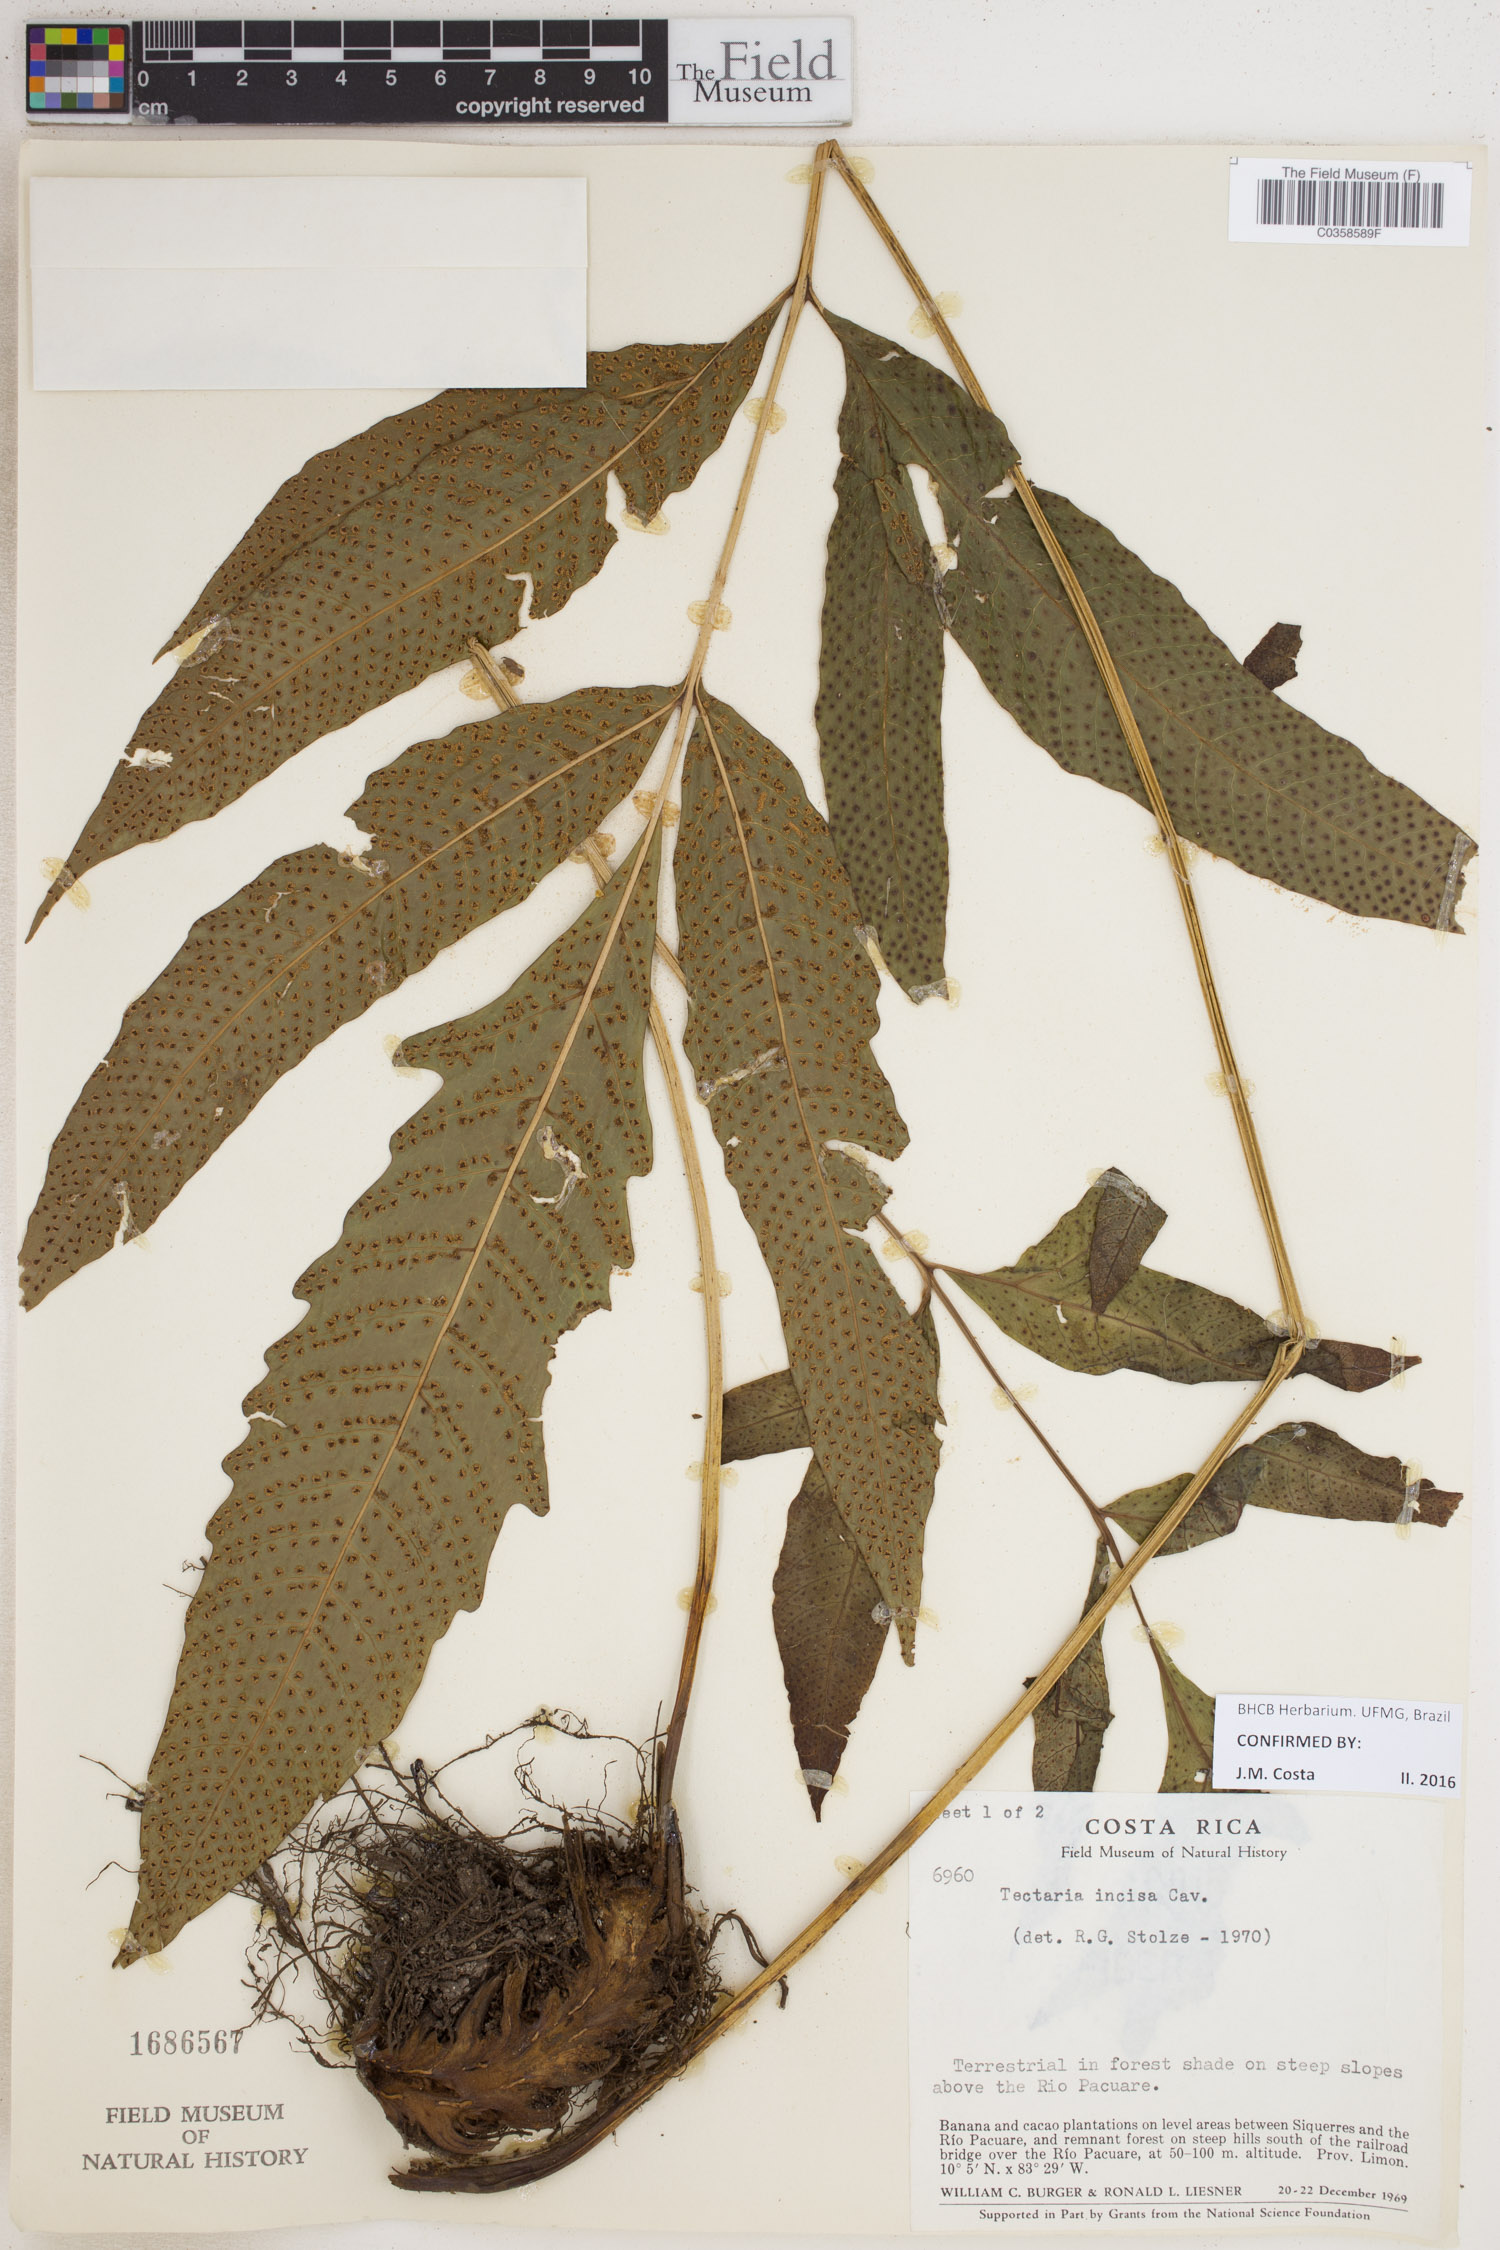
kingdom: Plantae
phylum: Tracheophyta
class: Polypodiopsida
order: Polypodiales
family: Tectariaceae
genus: Tectaria
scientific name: Tectaria incisa
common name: Incised halberd fern
